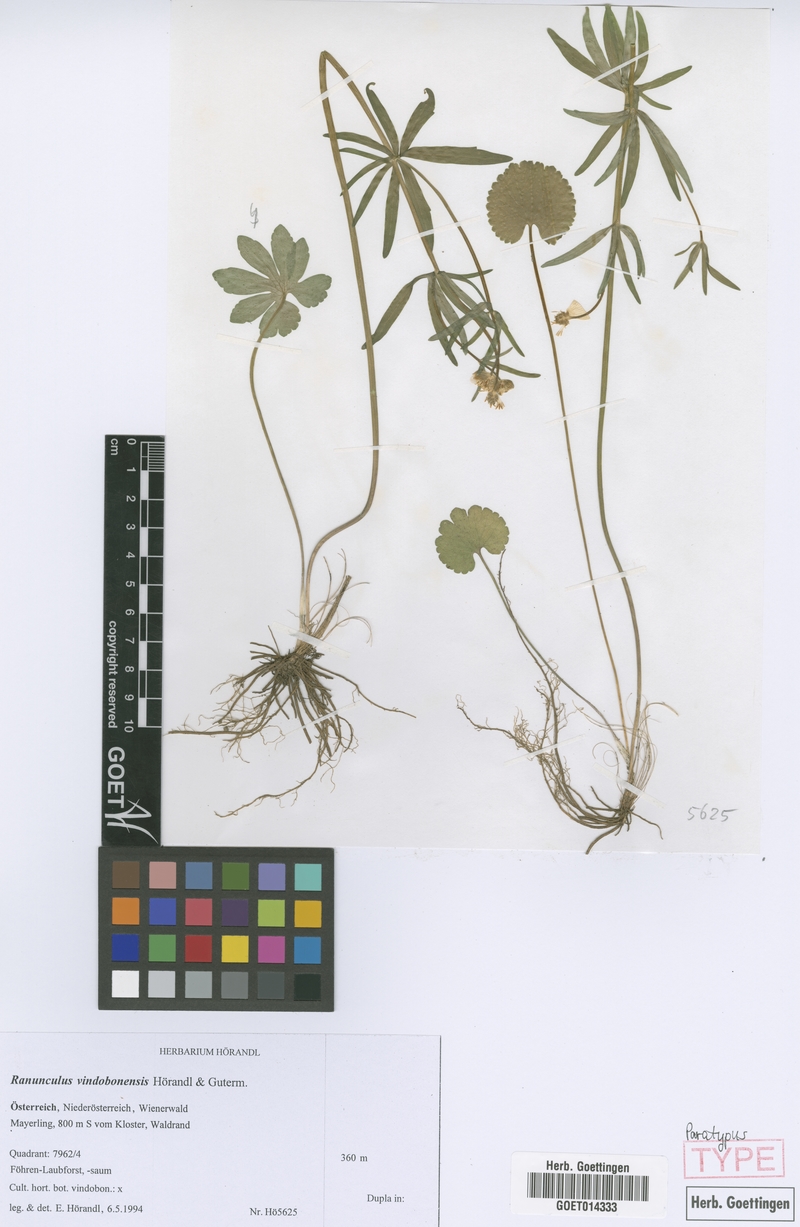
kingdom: Plantae
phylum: Tracheophyta
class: Magnoliopsida
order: Ranunculales
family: Ranunculaceae
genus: Ranunculus
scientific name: Ranunculus vindobonensis
